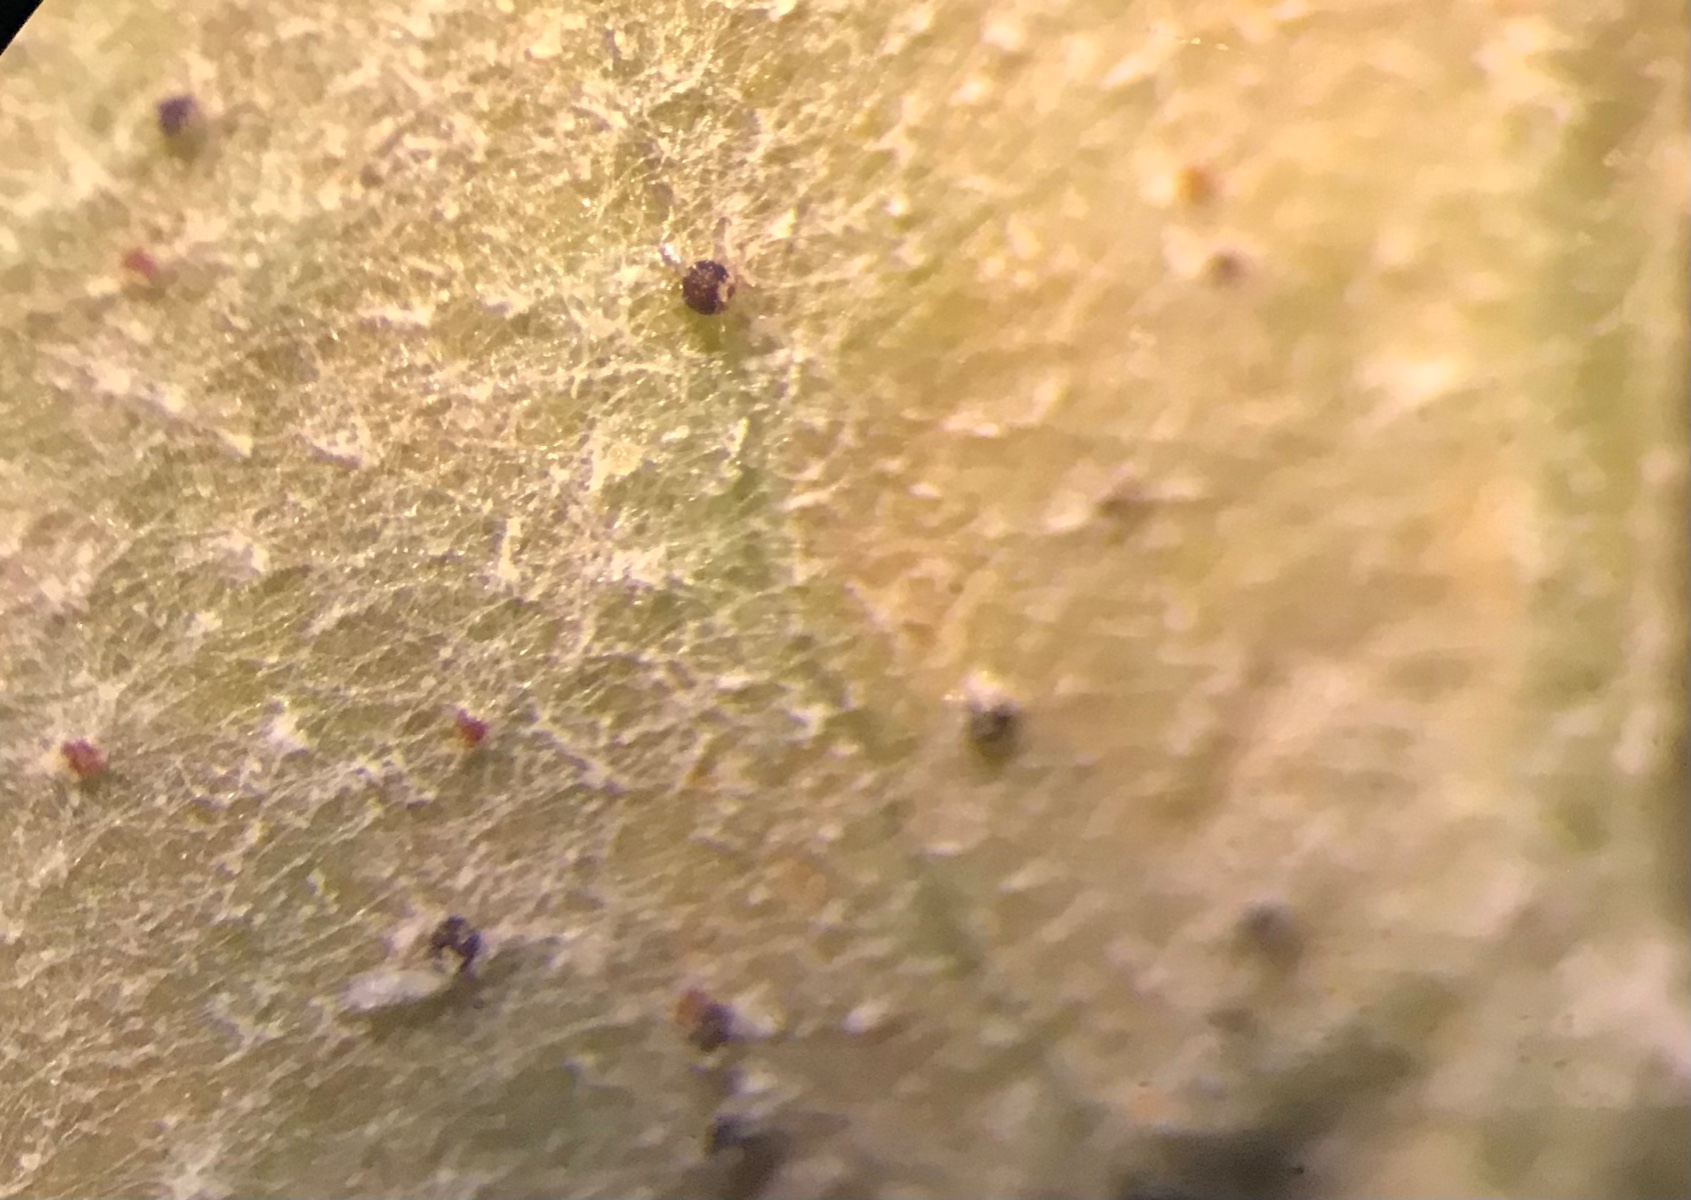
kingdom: Fungi
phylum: Ascomycota
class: Leotiomycetes
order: Helotiales
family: Erysiphaceae
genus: Golovinomyces
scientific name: Golovinomyces sonchicola
